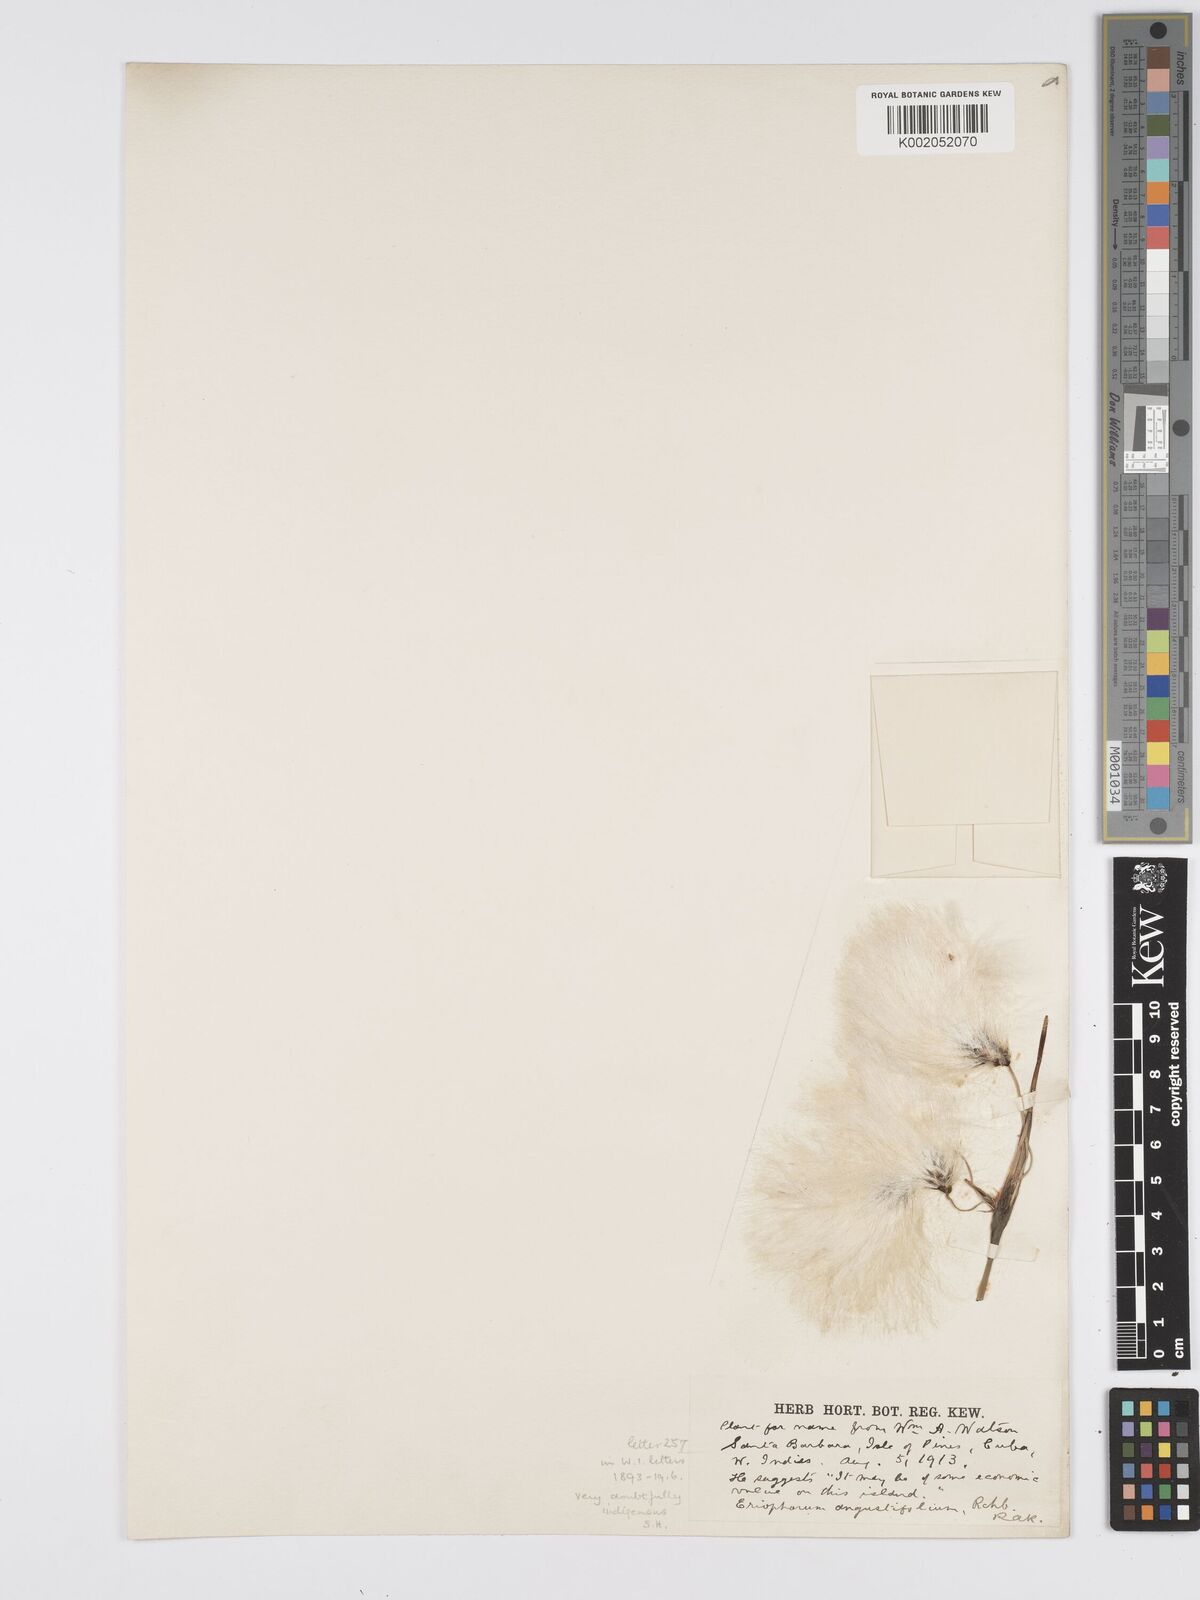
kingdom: Plantae
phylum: Tracheophyta
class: Liliopsida
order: Poales
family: Cyperaceae
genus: Eriophorum
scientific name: Eriophorum angustifolium
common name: Common cottongrass
